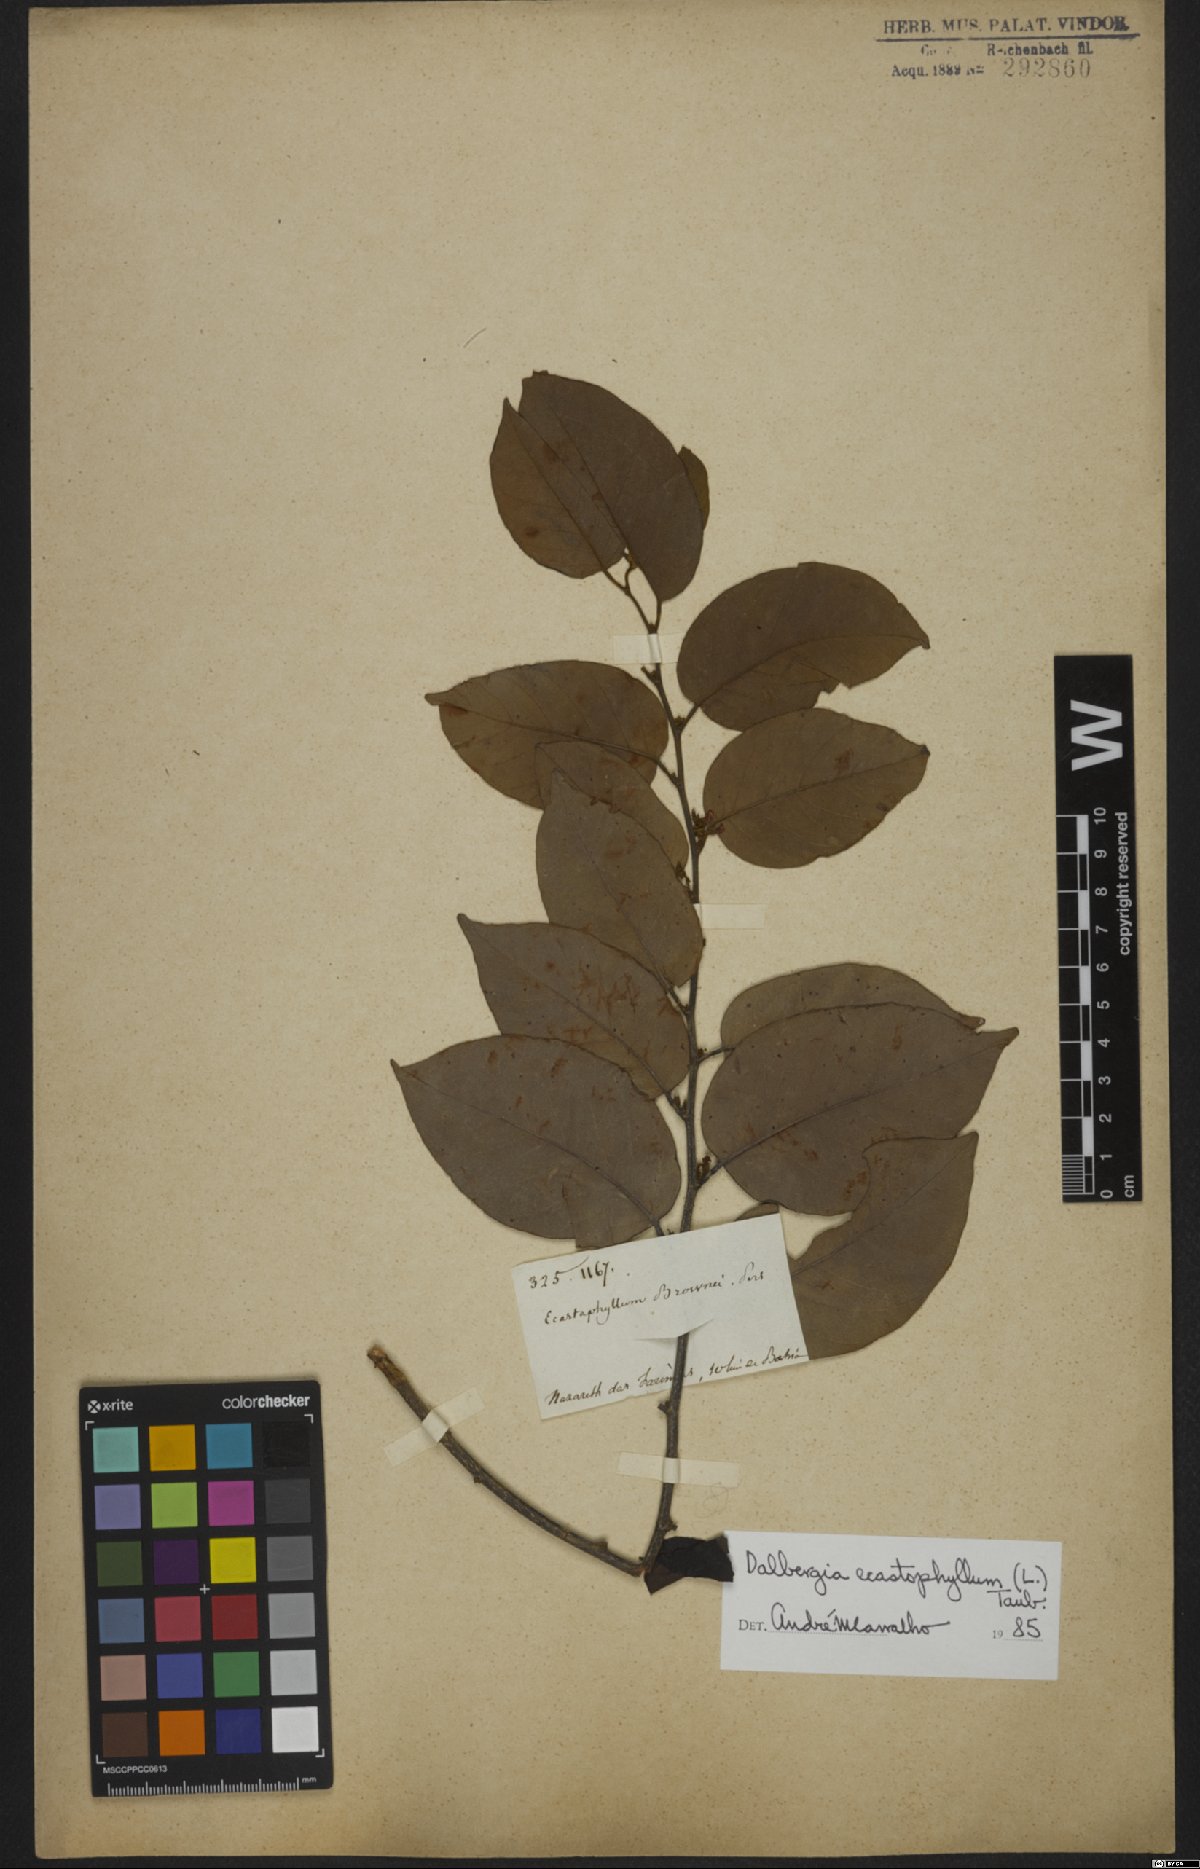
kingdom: Plantae
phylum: Tracheophyta
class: Magnoliopsida
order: Fabales
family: Fabaceae
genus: Dalbergia
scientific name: Dalbergia ecastaphyllum
